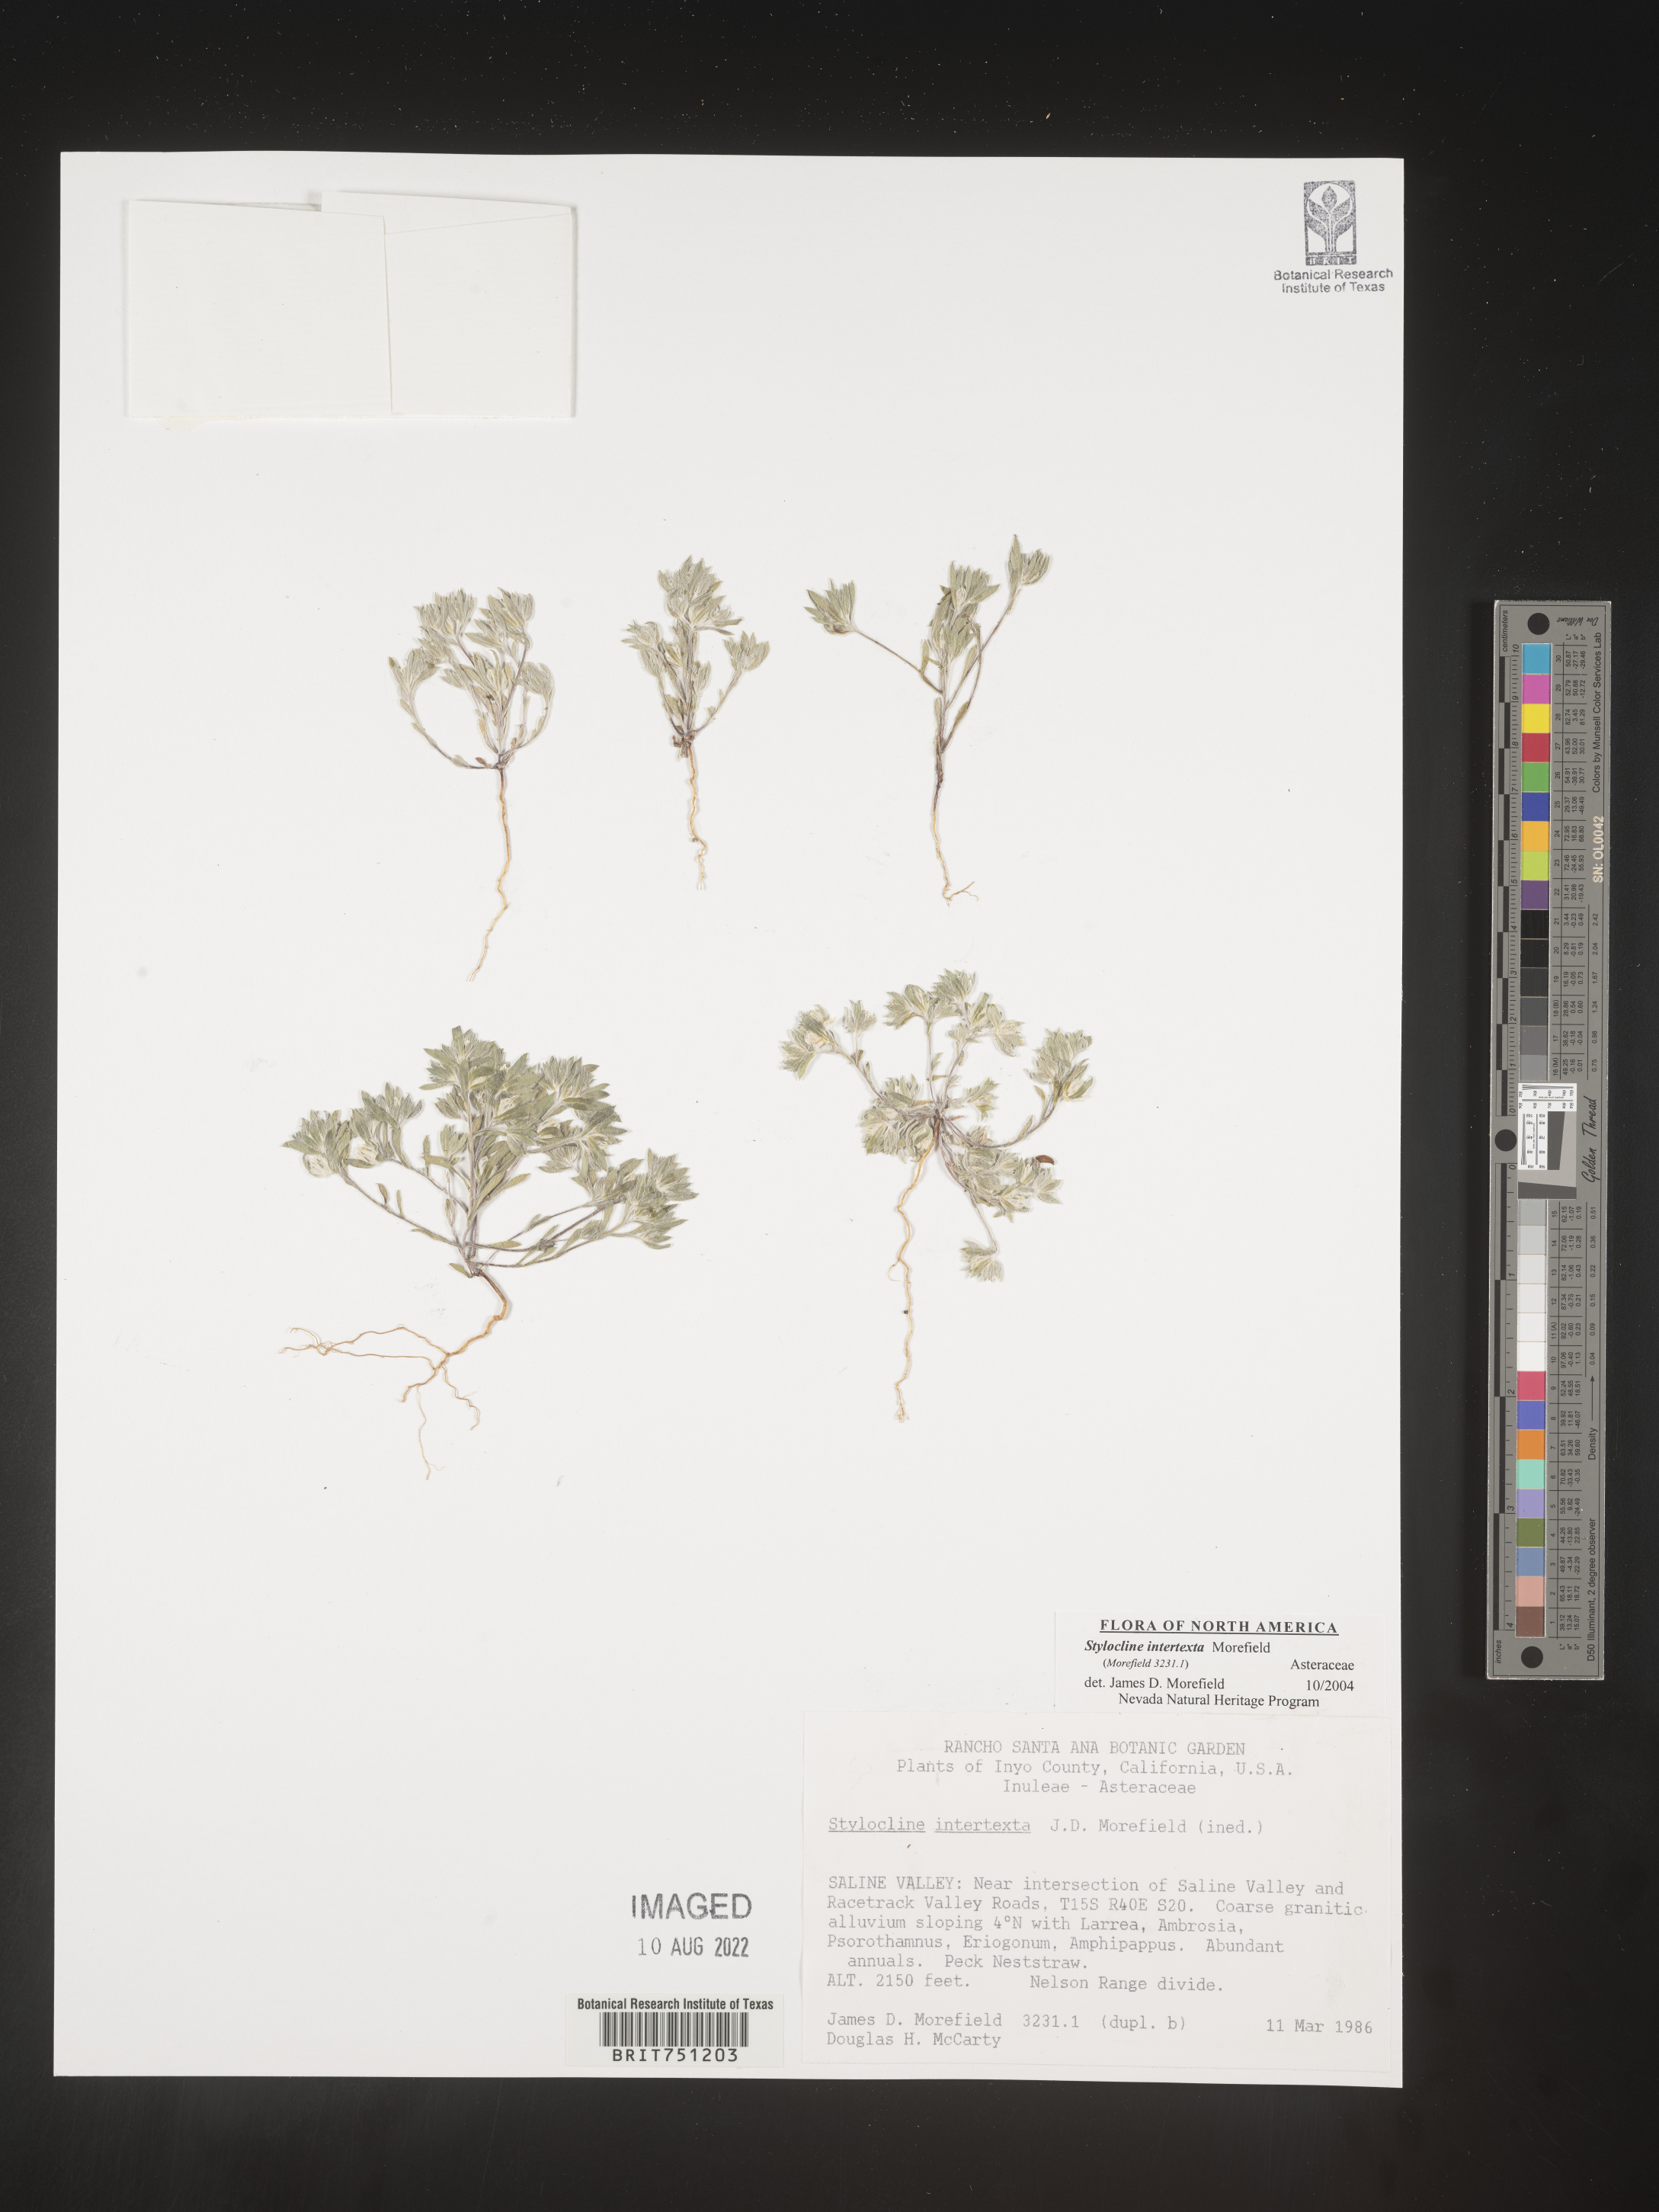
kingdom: Plantae
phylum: Tracheophyta
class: Magnoliopsida
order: Asterales
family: Asteraceae
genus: Stylocline
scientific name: Stylocline
